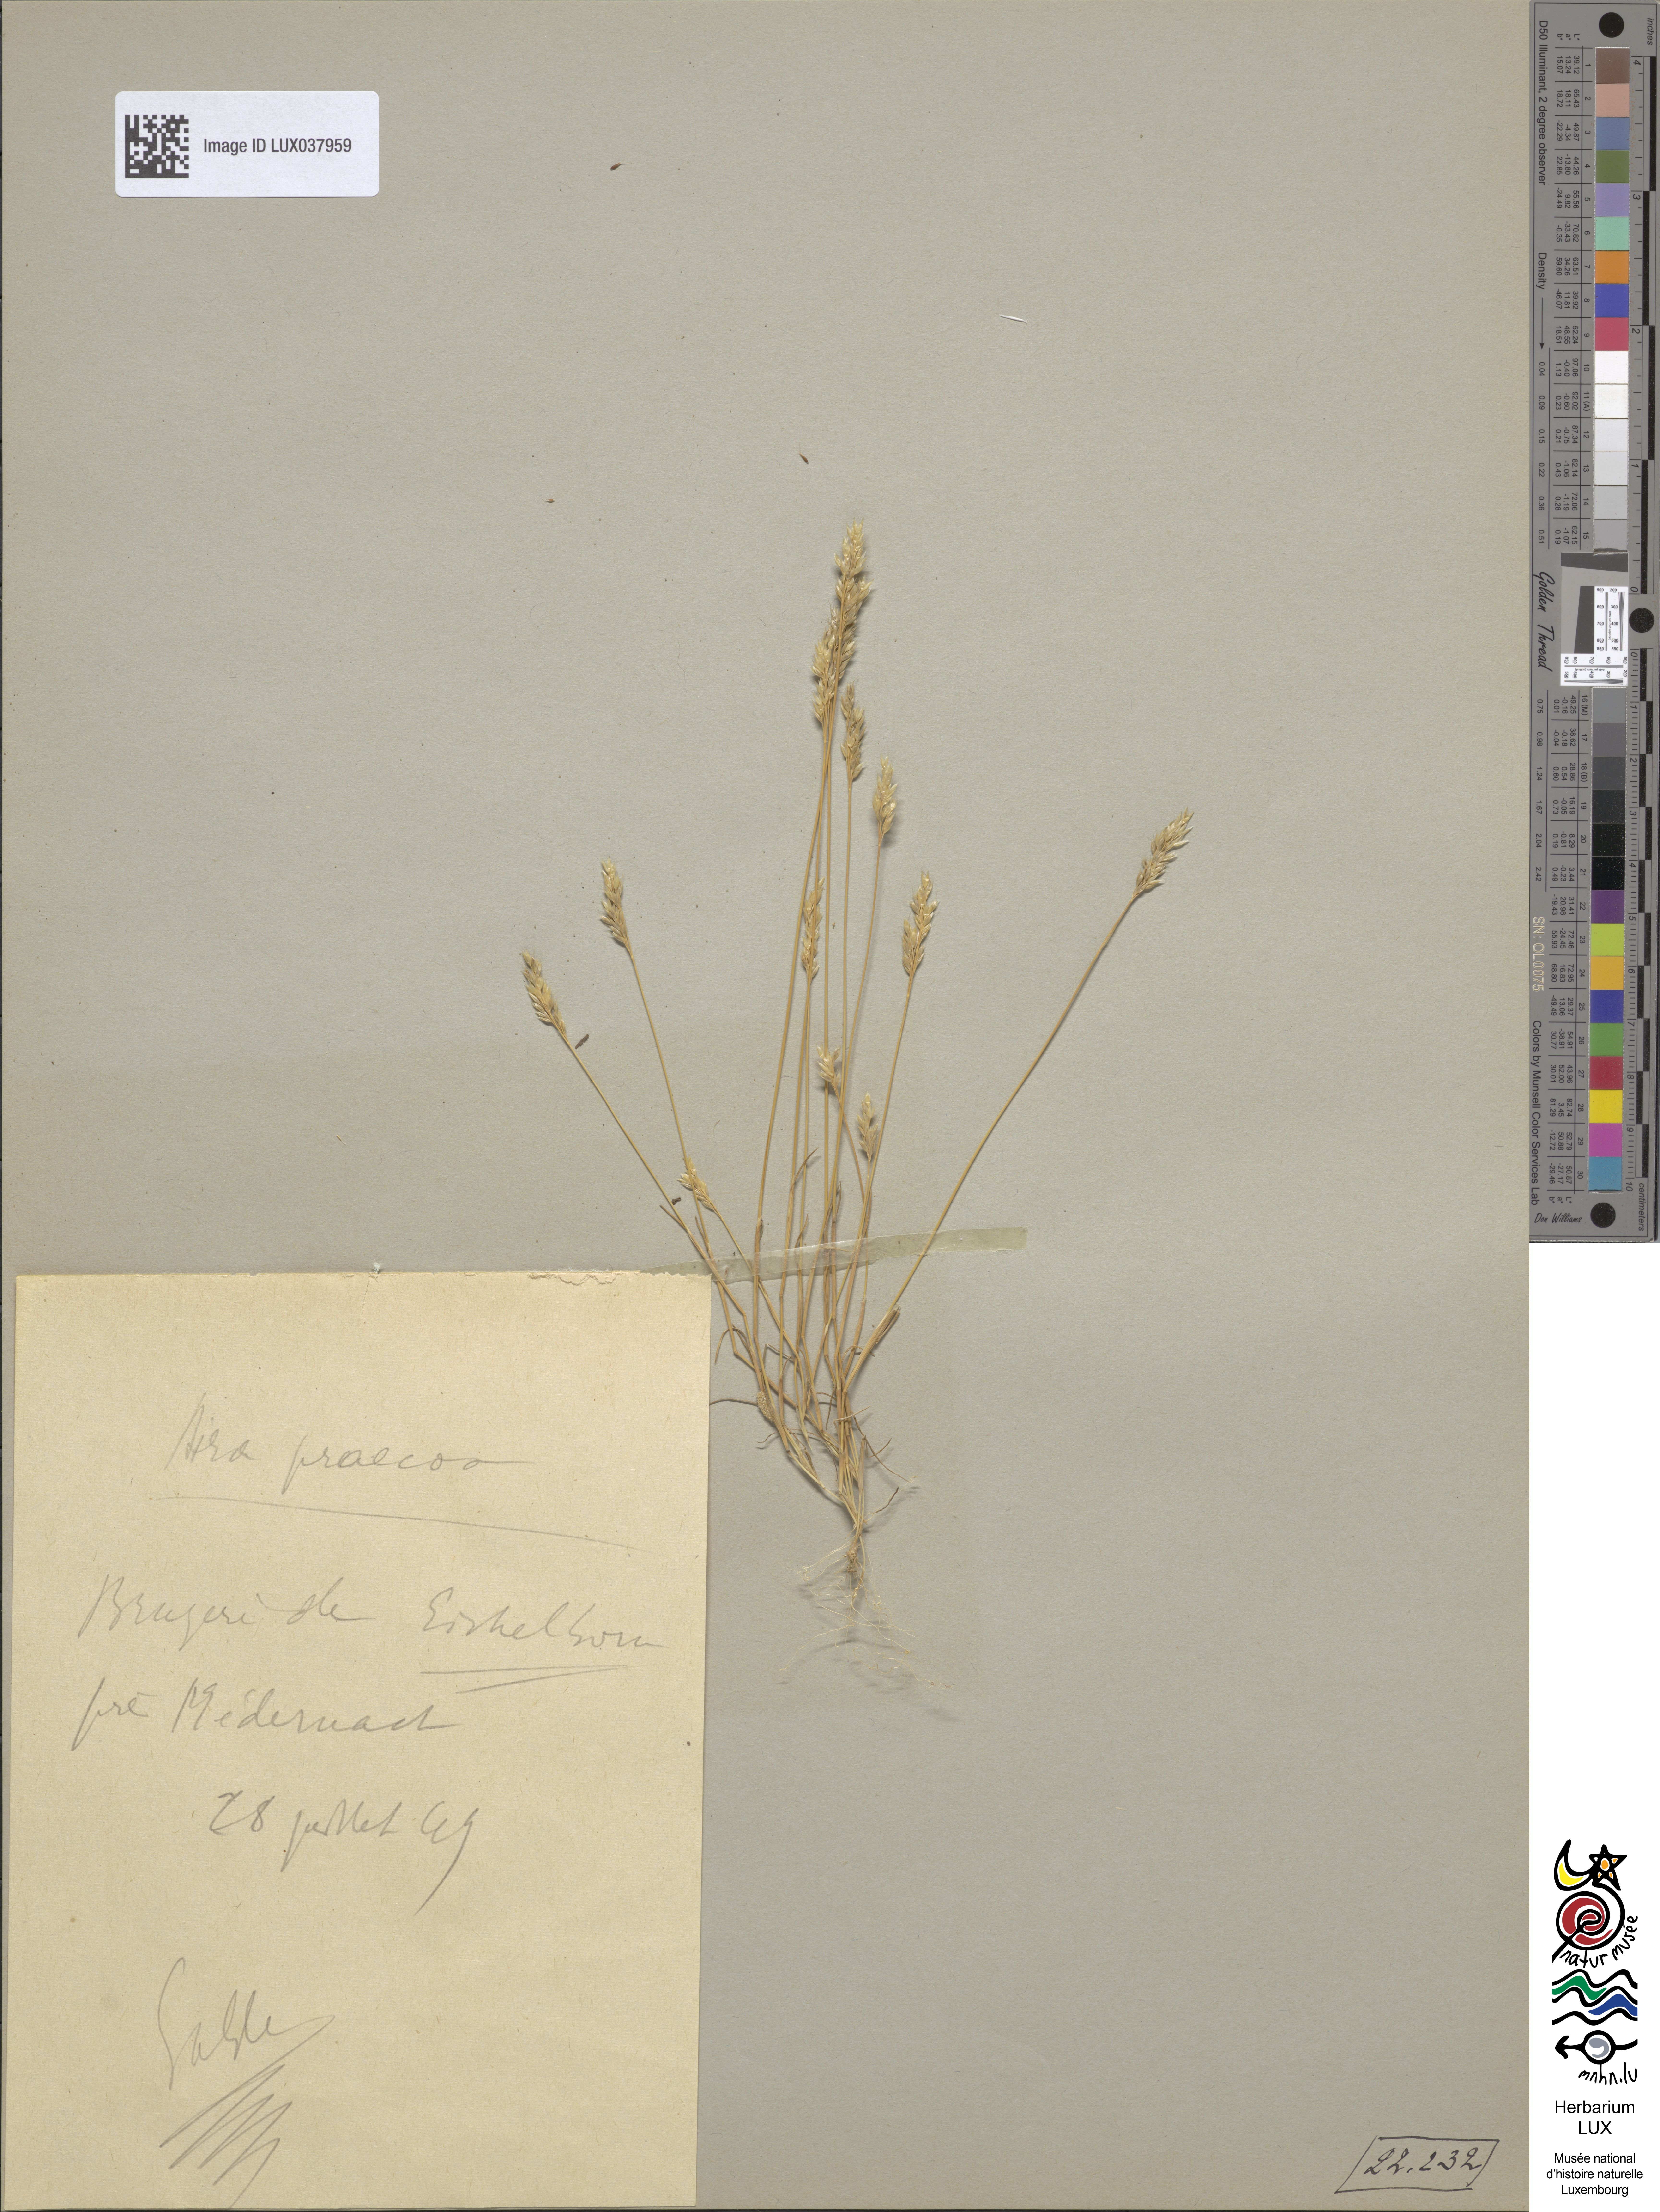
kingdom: Plantae
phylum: Tracheophyta
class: Liliopsida
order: Poales
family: Poaceae
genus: Aira
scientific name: Aira praecox
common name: Early hair-grass
